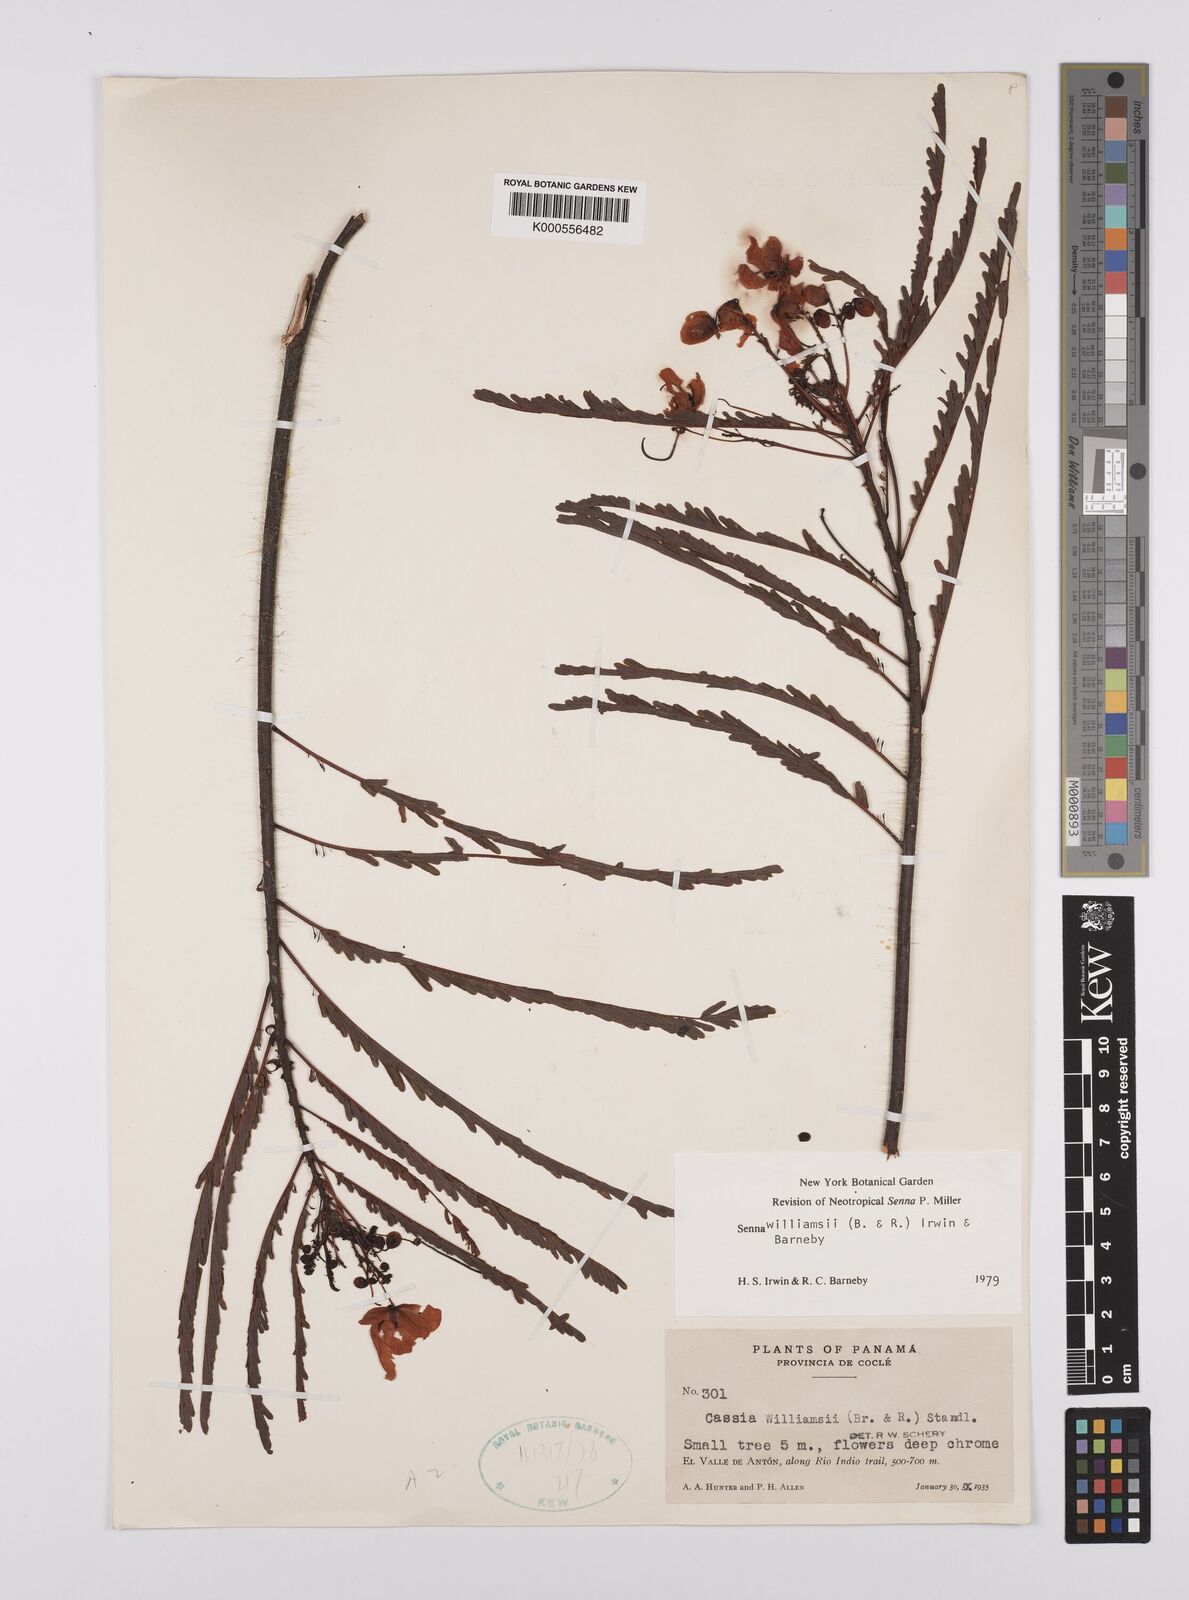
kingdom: Plantae
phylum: Tracheophyta
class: Magnoliopsida
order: Fabales
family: Fabaceae
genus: Senna
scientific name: Senna williamsii
